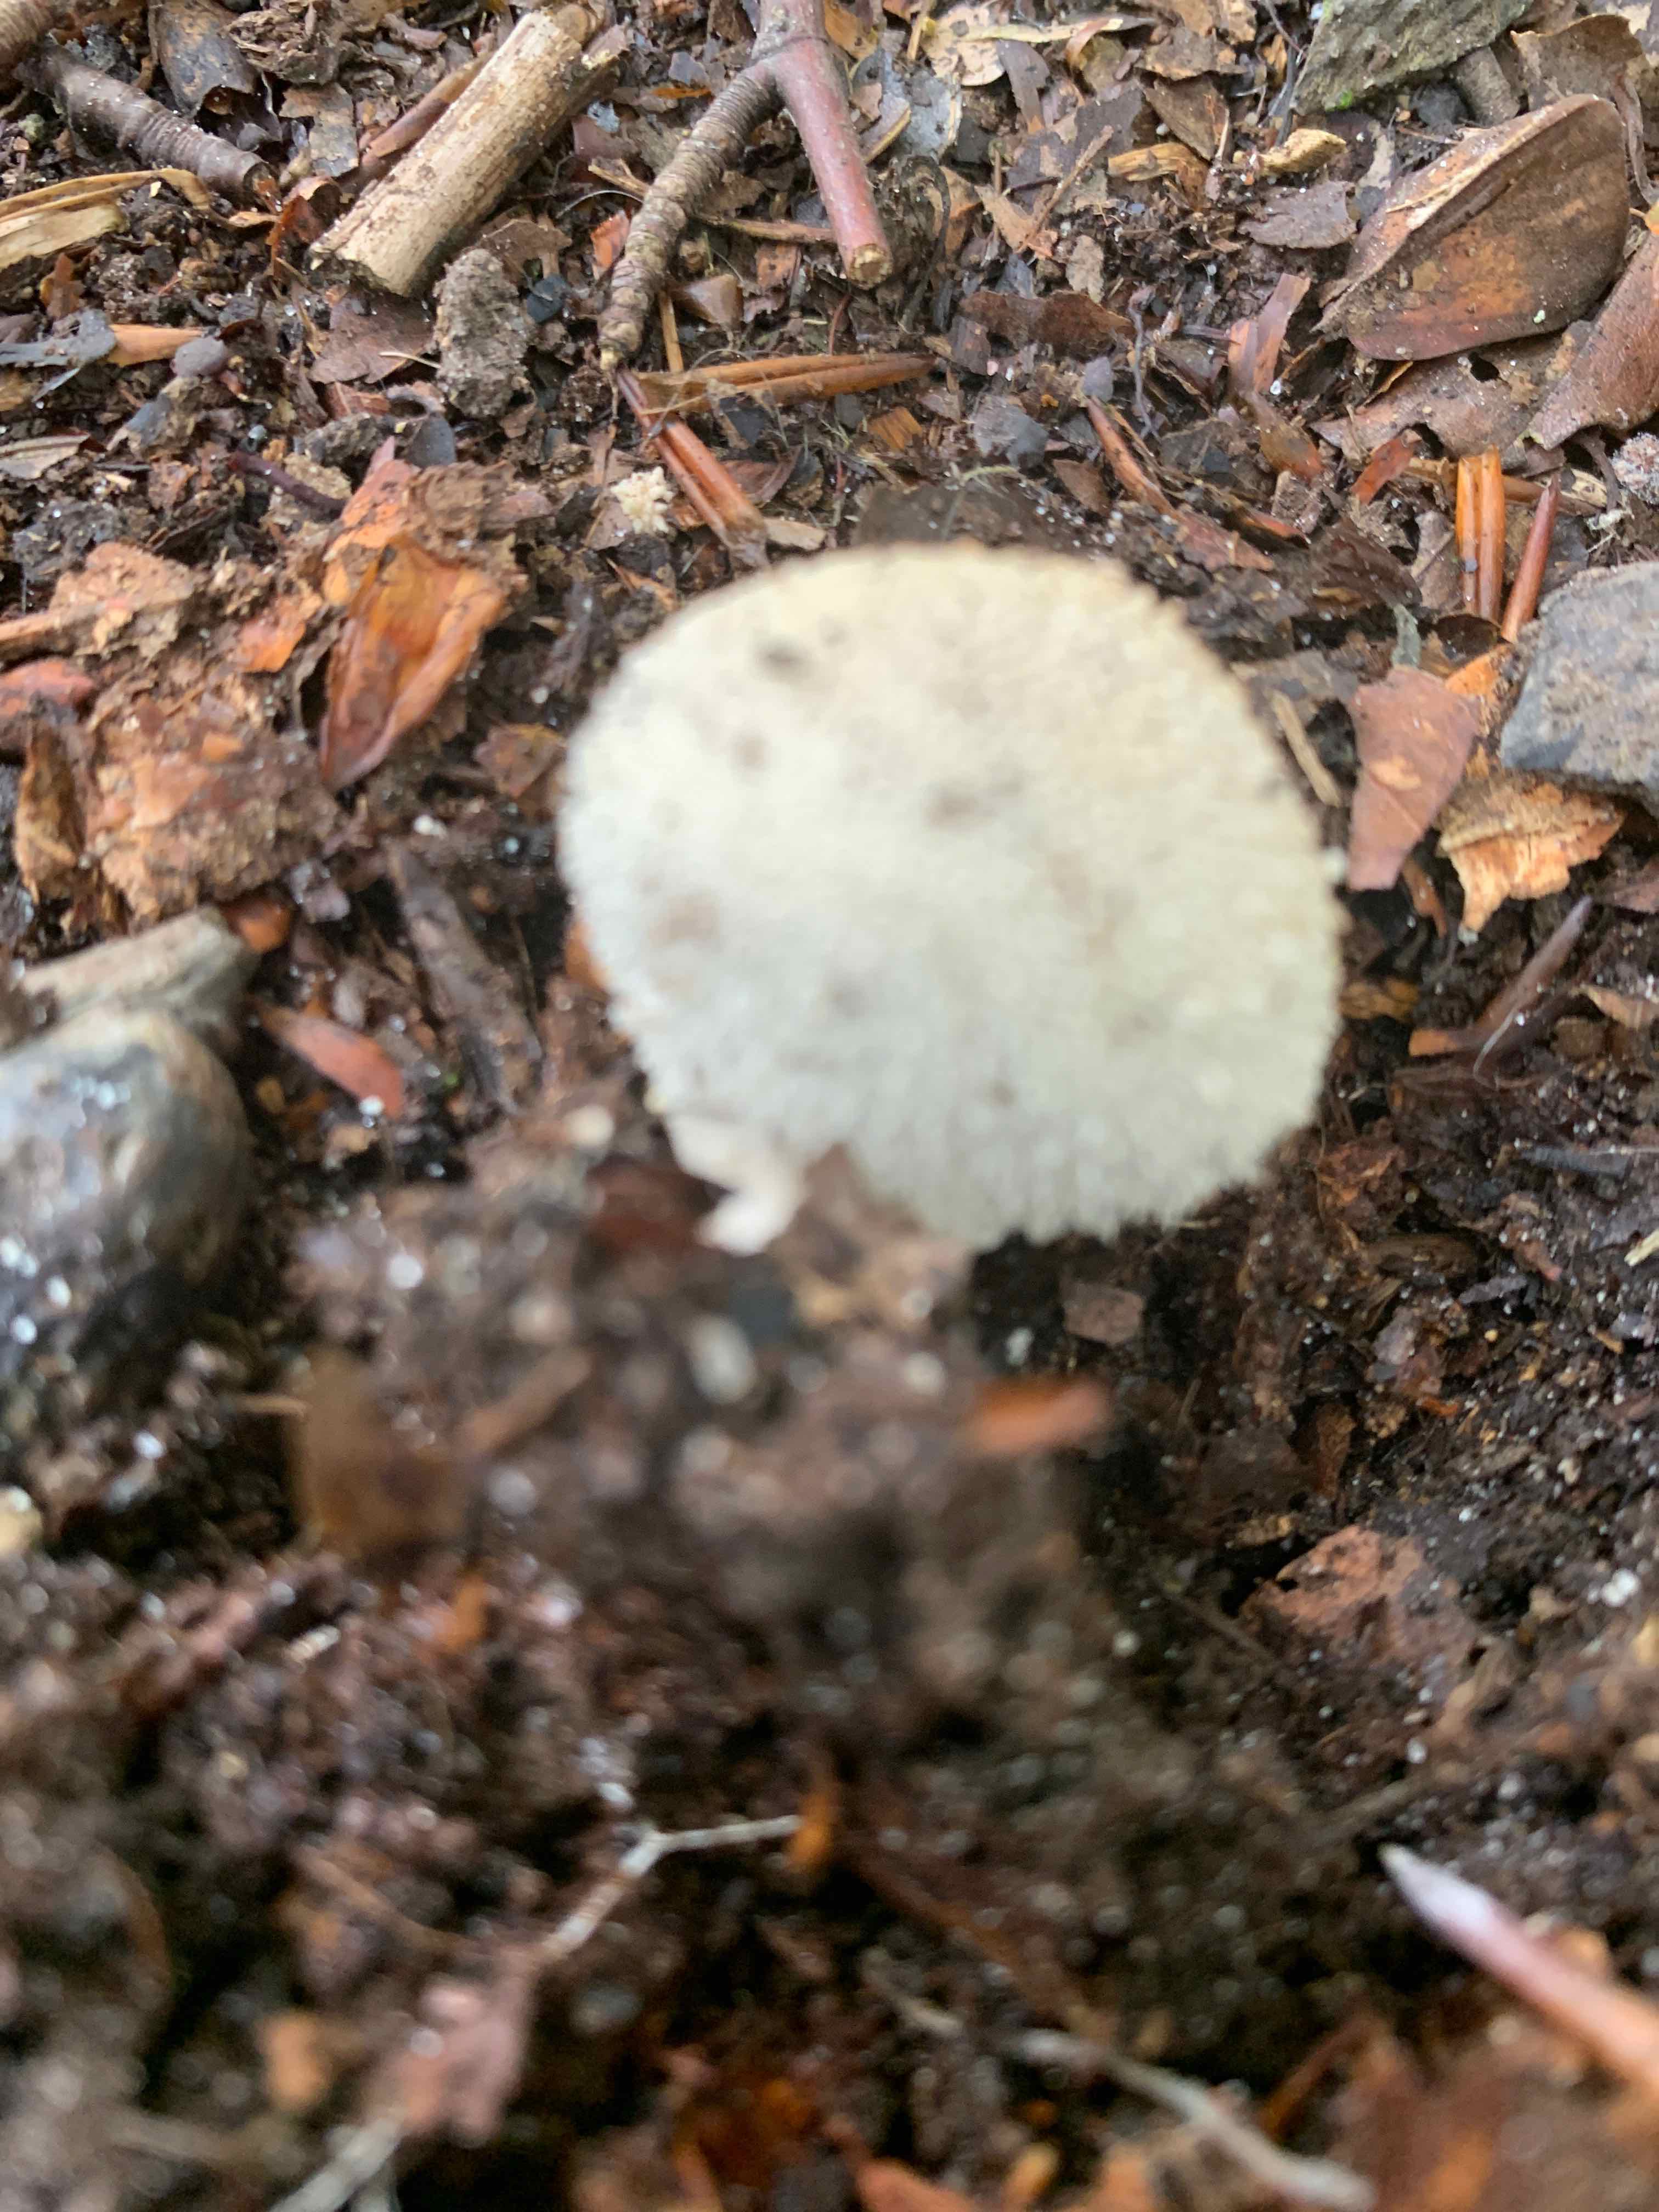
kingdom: Fungi
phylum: Basidiomycota
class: Agaricomycetes
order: Agaricales
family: Lycoperdaceae
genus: Lycoperdon
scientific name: Lycoperdon perlatum
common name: krystal-støvbold
